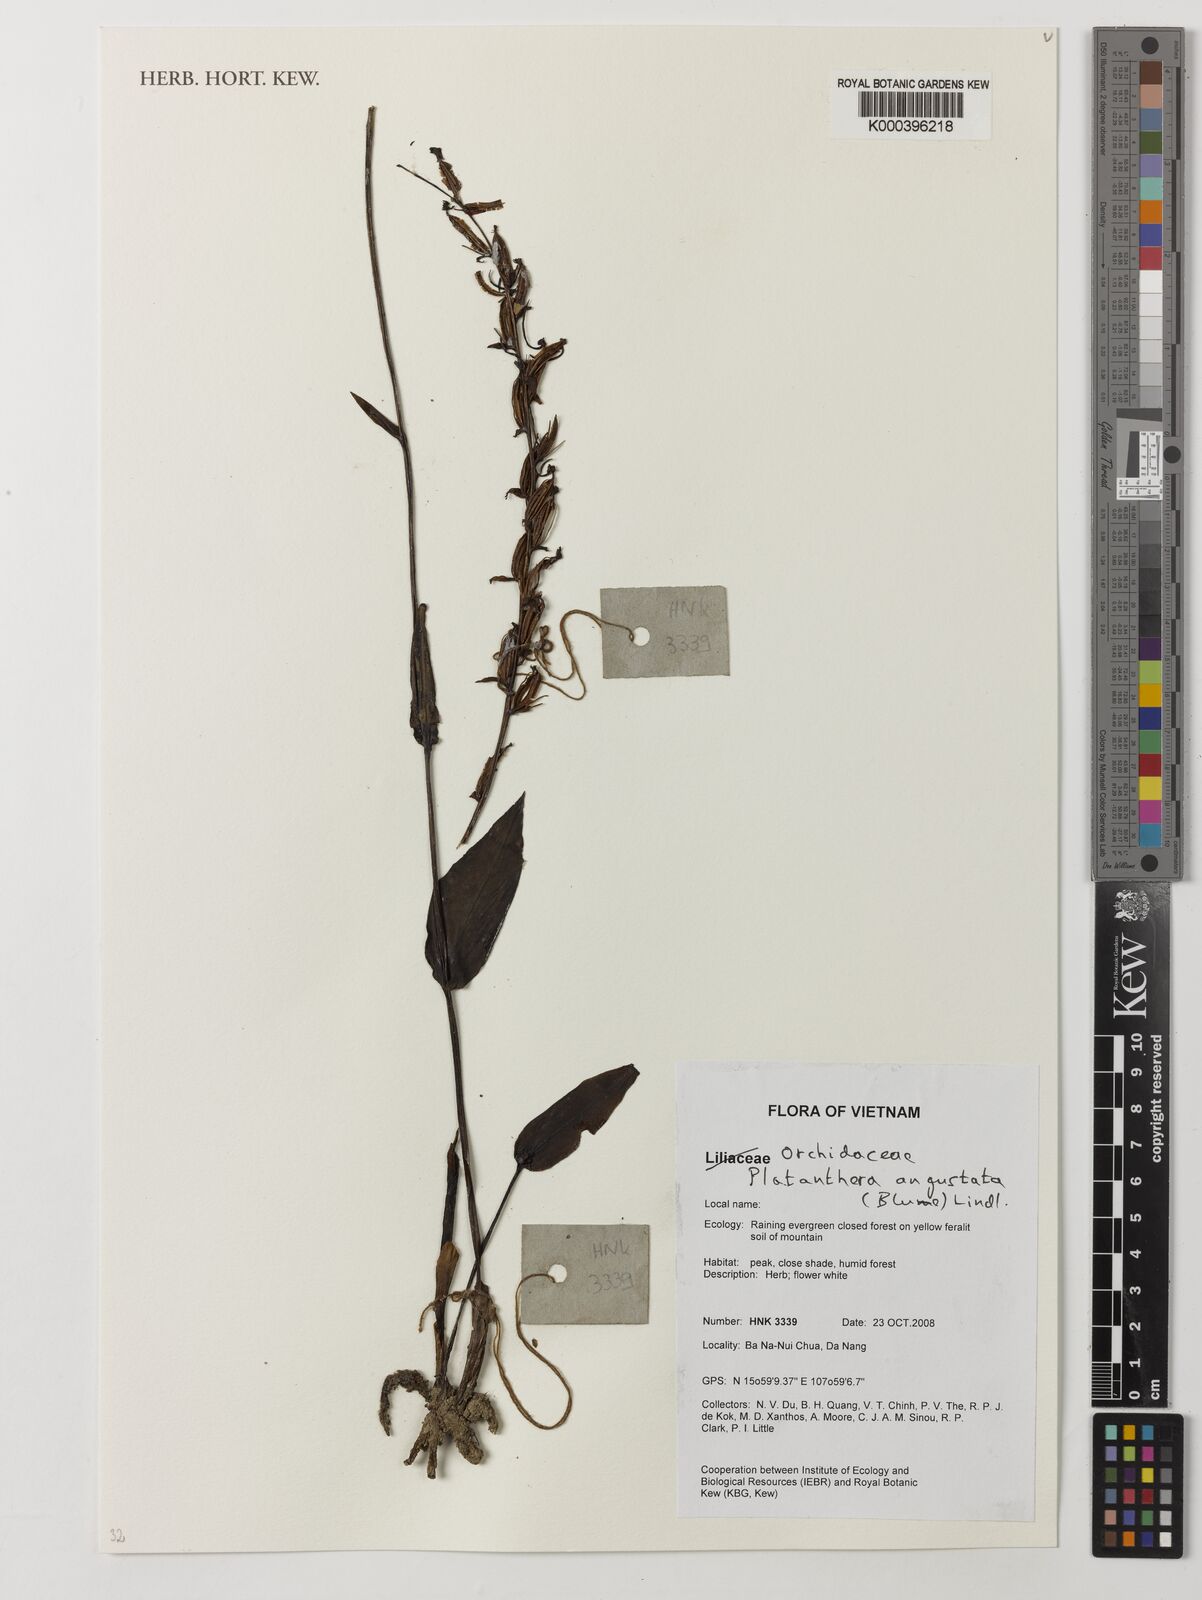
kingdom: Plantae
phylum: Tracheophyta
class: Liliopsida
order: Asparagales
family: Orchidaceae
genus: Platanthera
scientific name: Platanthera angustata
